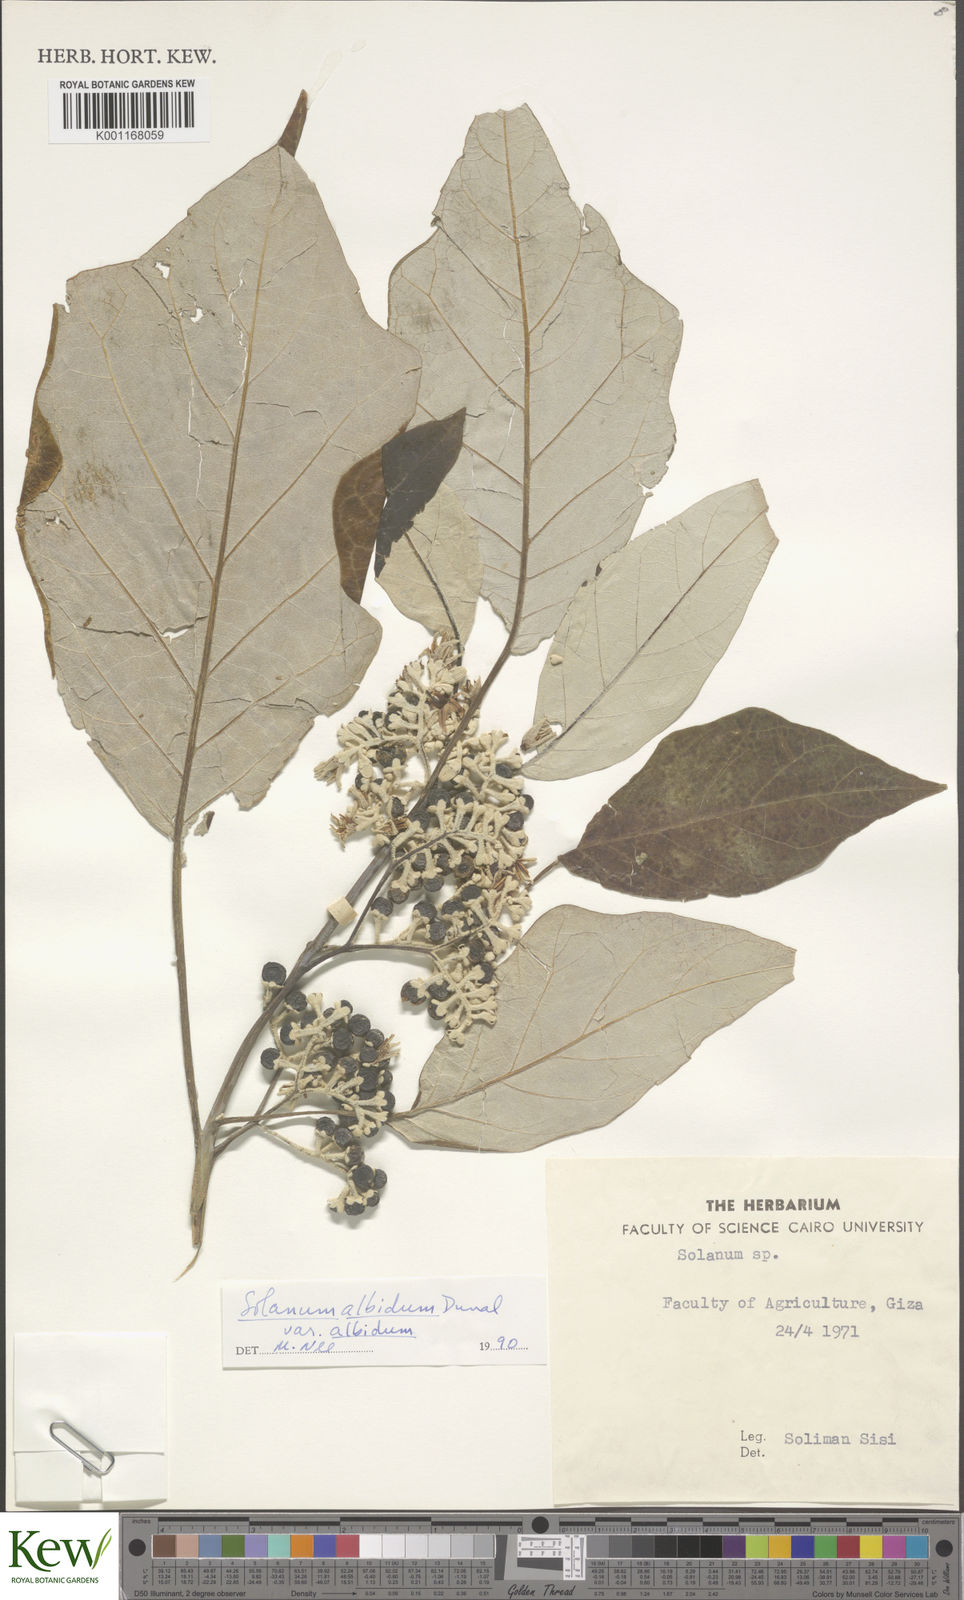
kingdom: Plantae
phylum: Tracheophyta
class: Magnoliopsida
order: Solanales
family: Solanaceae
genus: Solanum
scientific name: Solanum albidum
